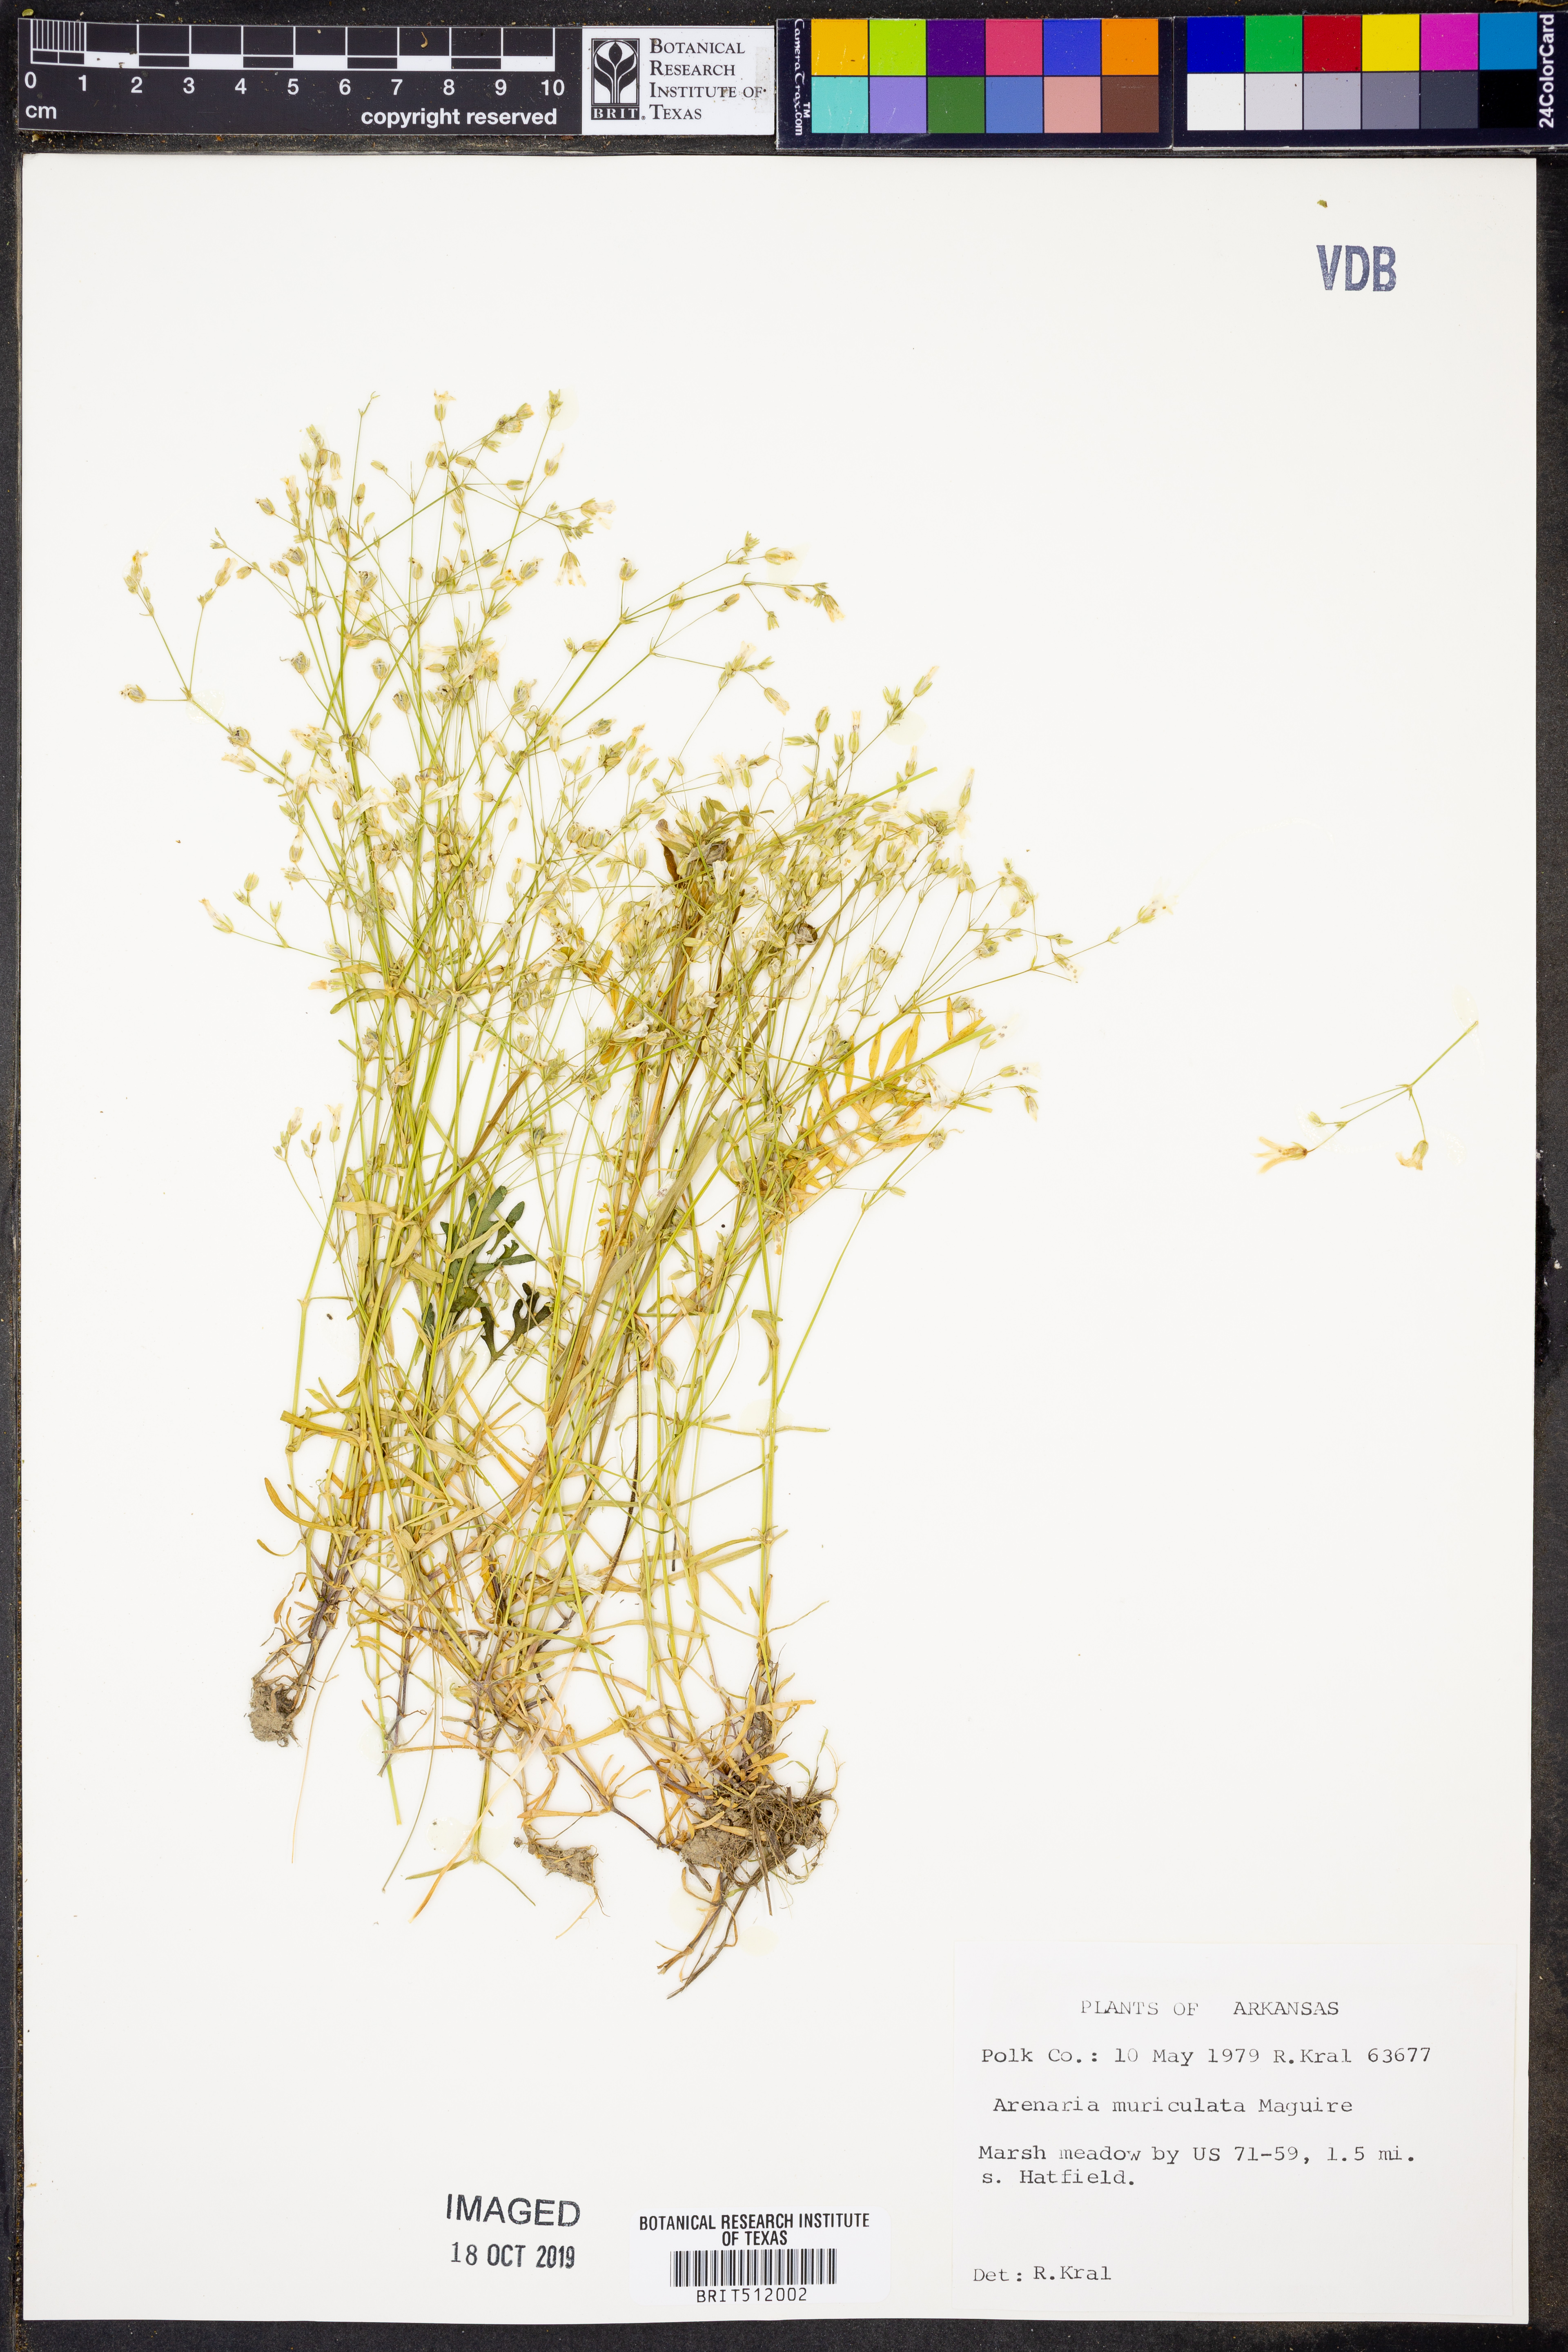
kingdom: Plantae
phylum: Tracheophyta
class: Magnoliopsida
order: Caryophyllales
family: Caryophyllaceae
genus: Mononeuria
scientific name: Mononeuria muscorum
